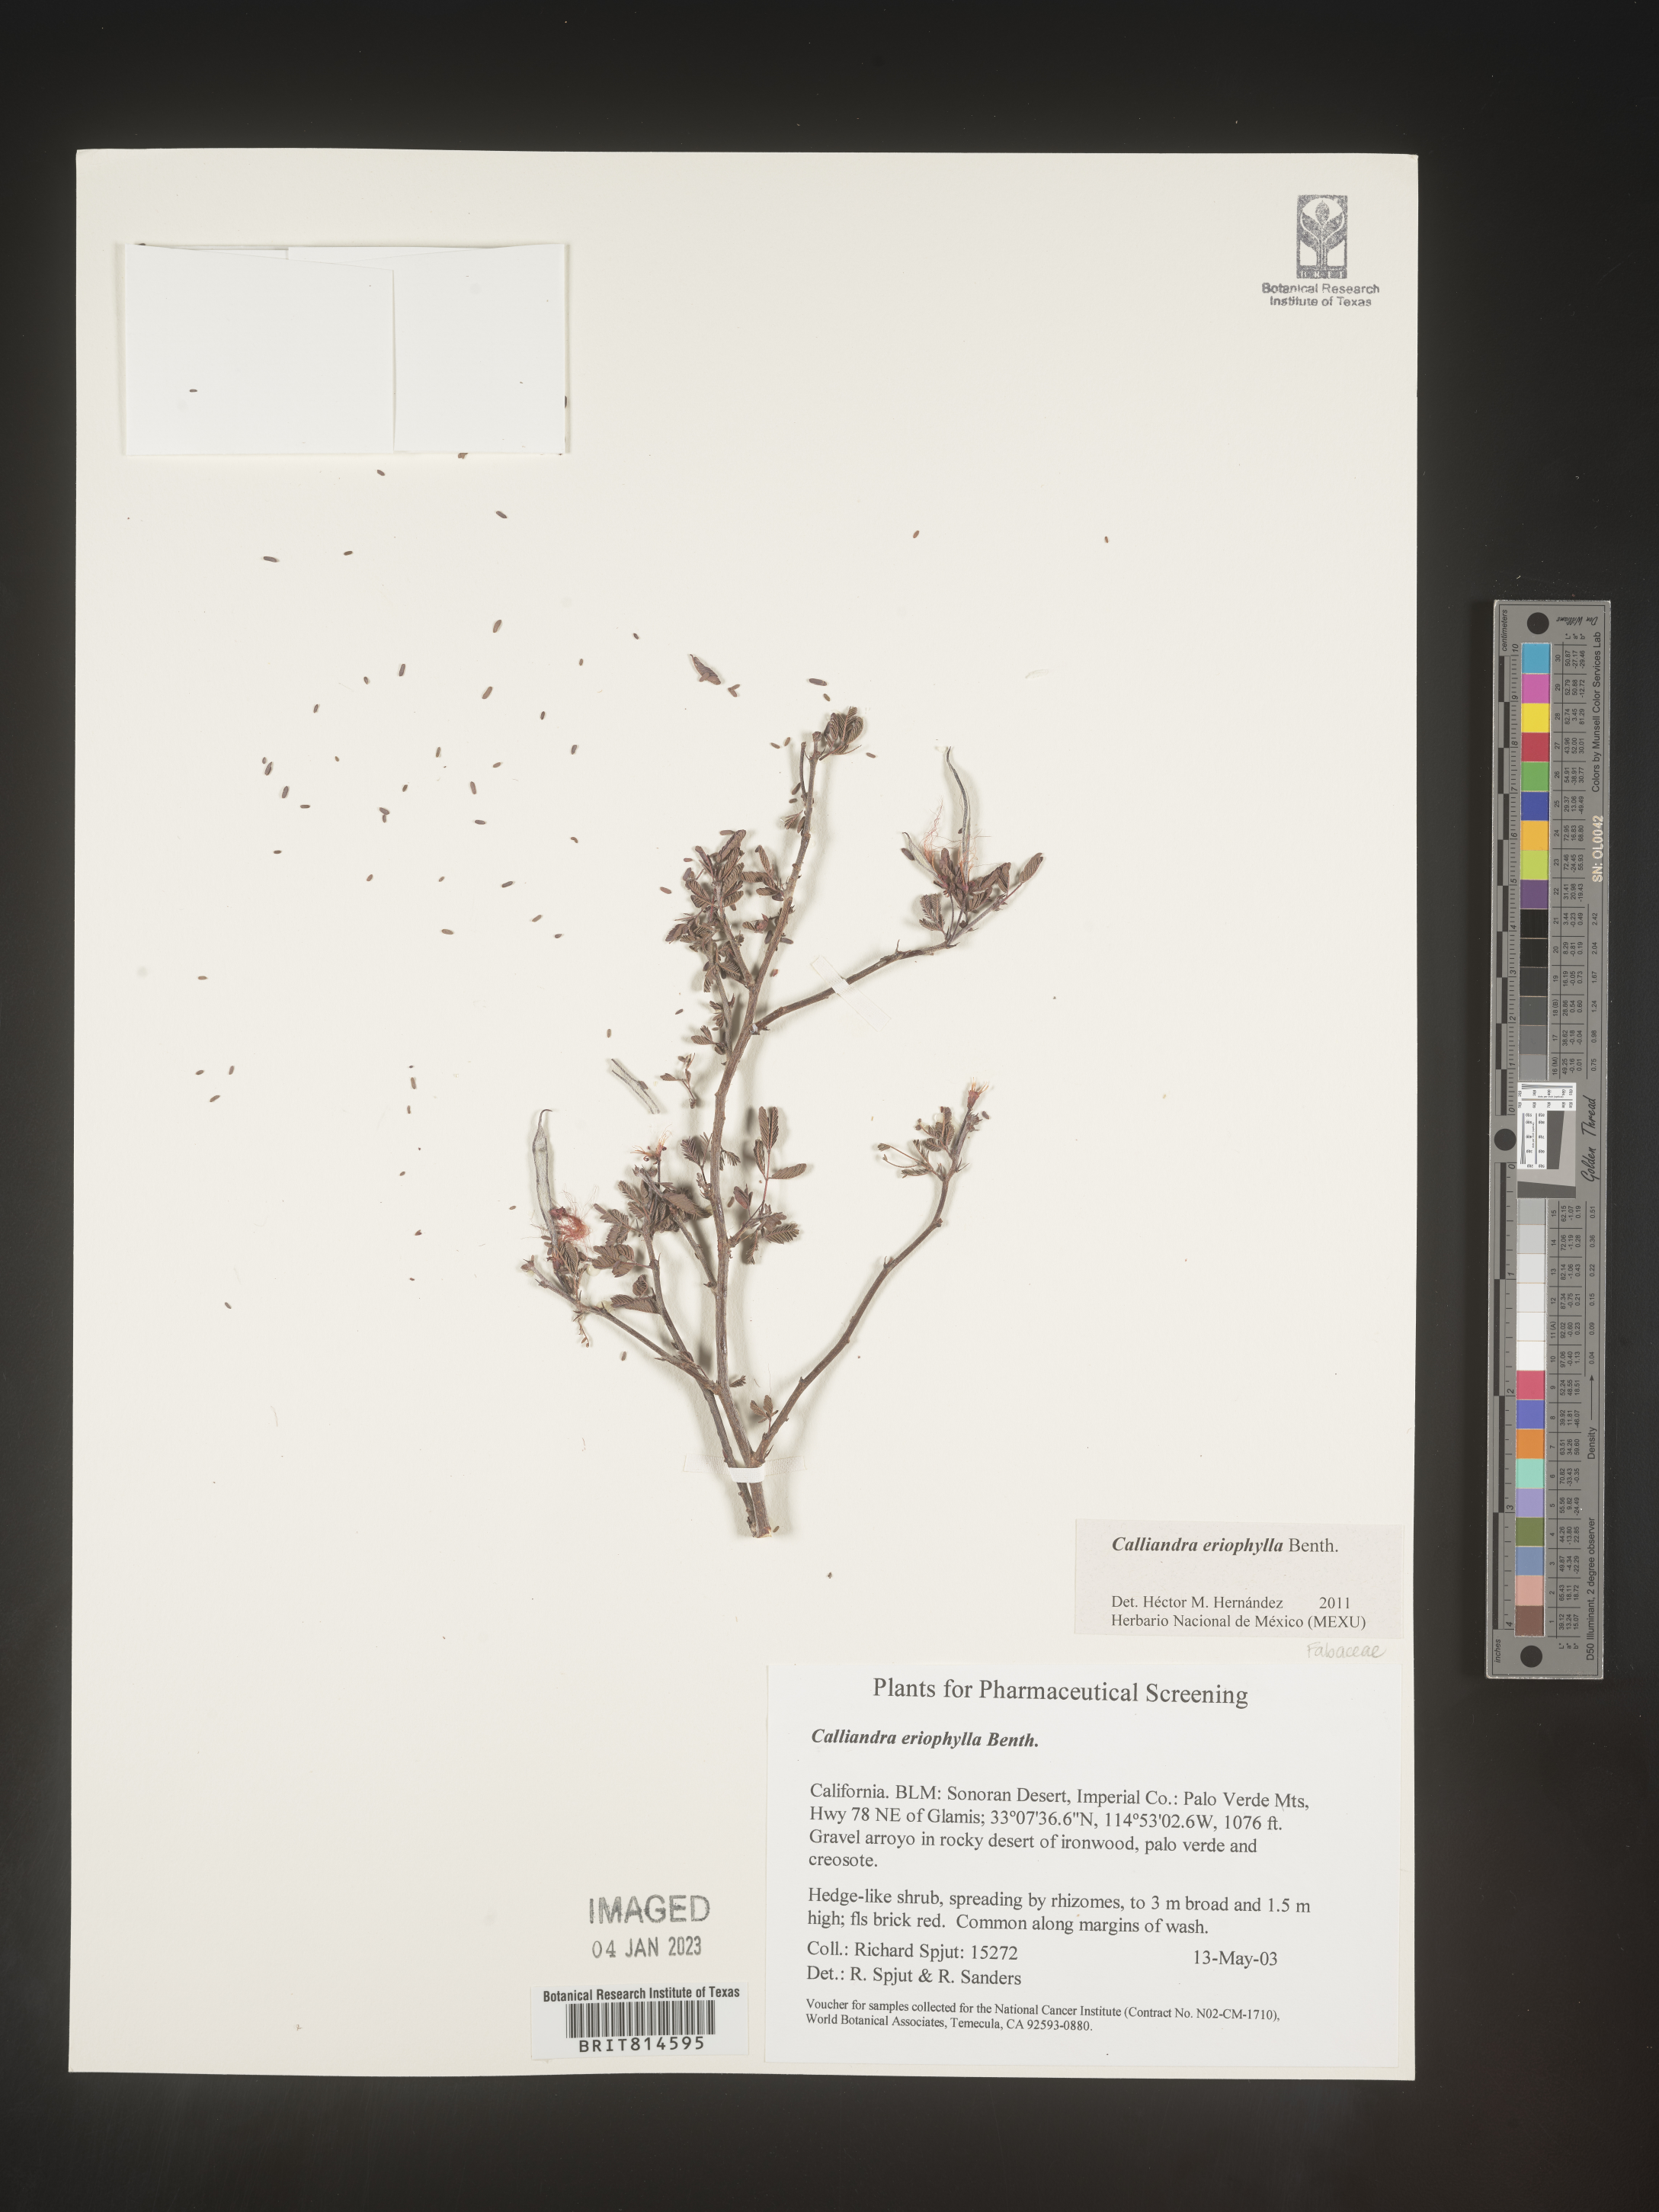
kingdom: Plantae
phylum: Tracheophyta
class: Magnoliopsida
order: Fabales
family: Fabaceae
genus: Calliandra
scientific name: Calliandra
